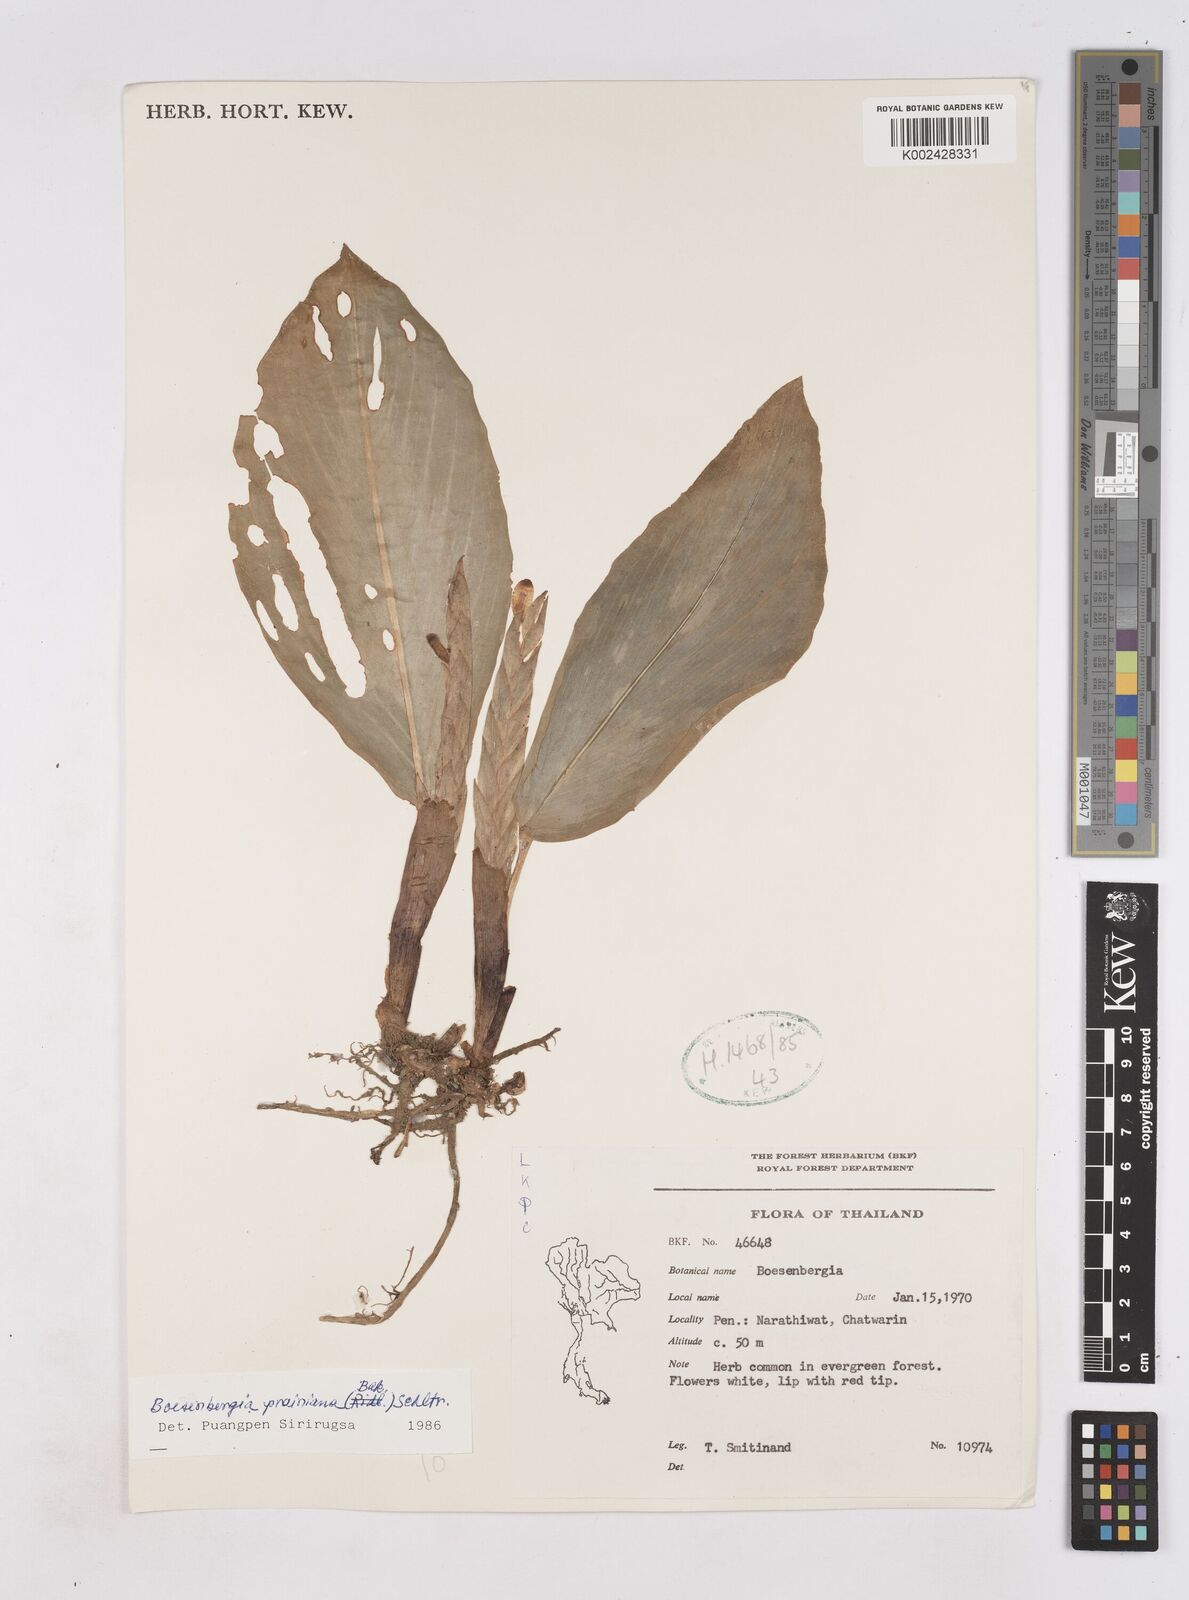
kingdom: Plantae
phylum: Tracheophyta
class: Liliopsida
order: Zingiberales
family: Zingiberaceae
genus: Boesenbergia
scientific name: Boesenbergia prainiana
